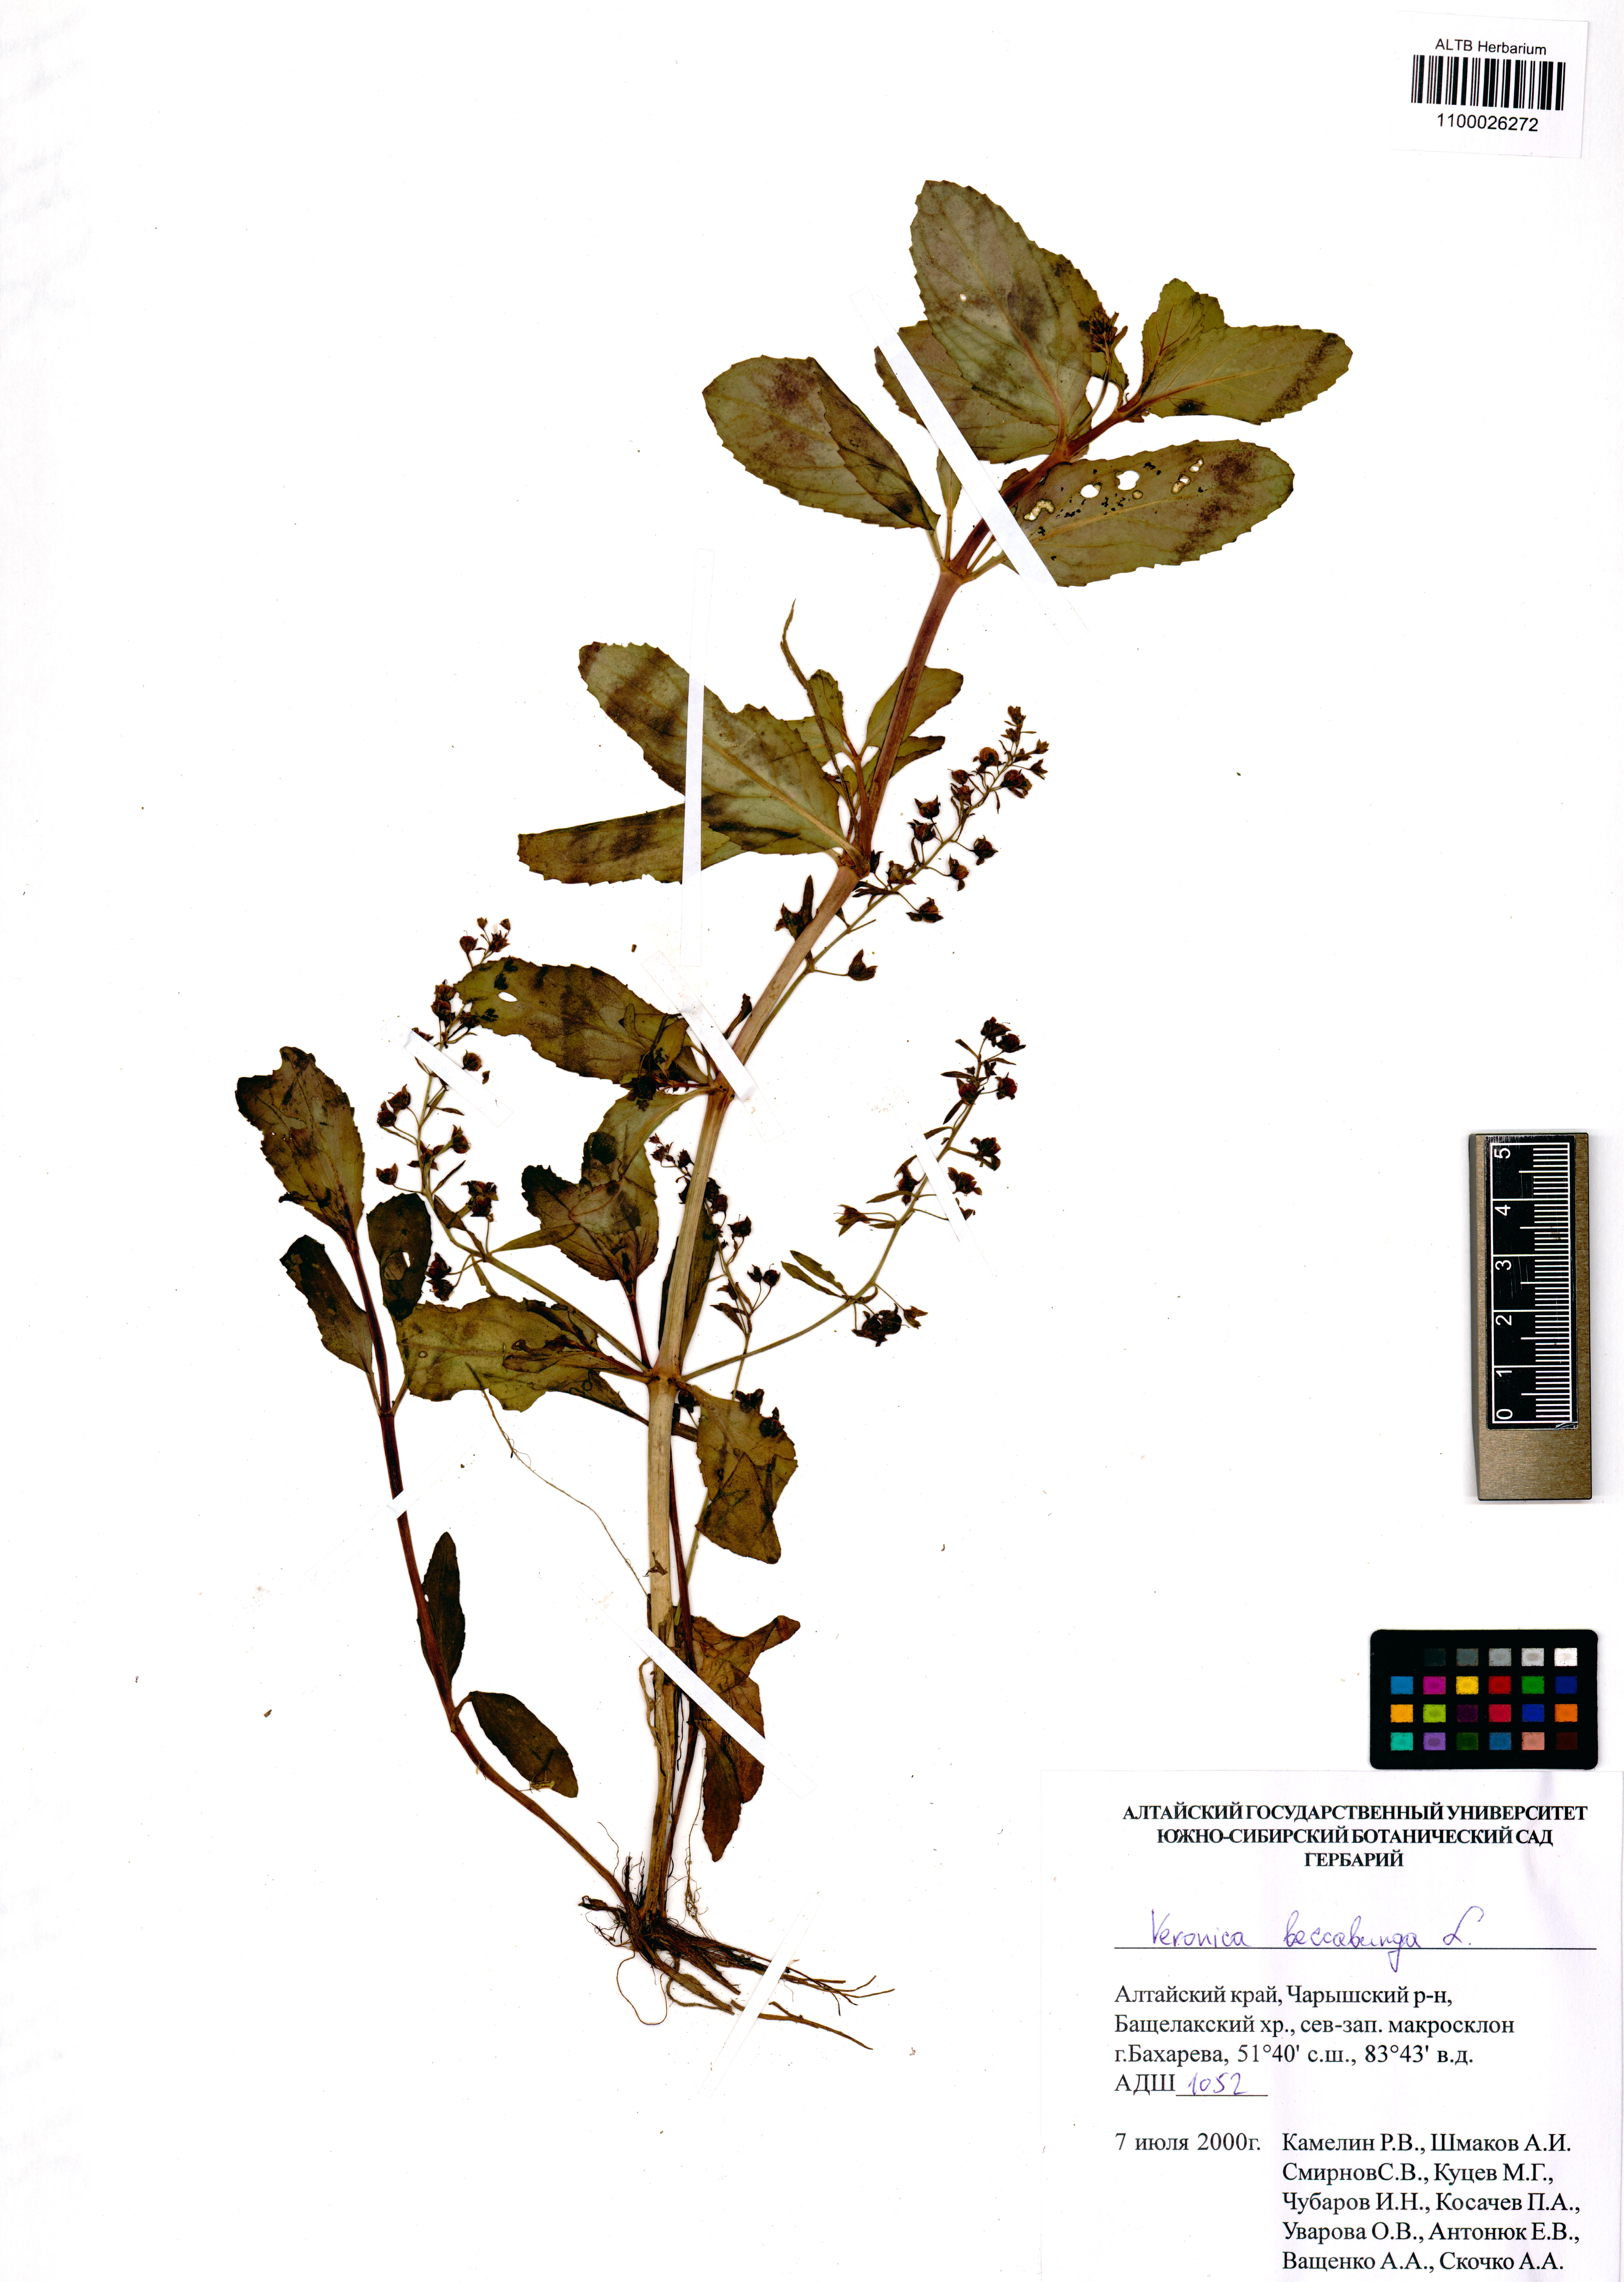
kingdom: Plantae
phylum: Tracheophyta
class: Magnoliopsida
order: Lamiales
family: Plantaginaceae
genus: Veronica
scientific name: Veronica beccabunga
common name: Brooklime
